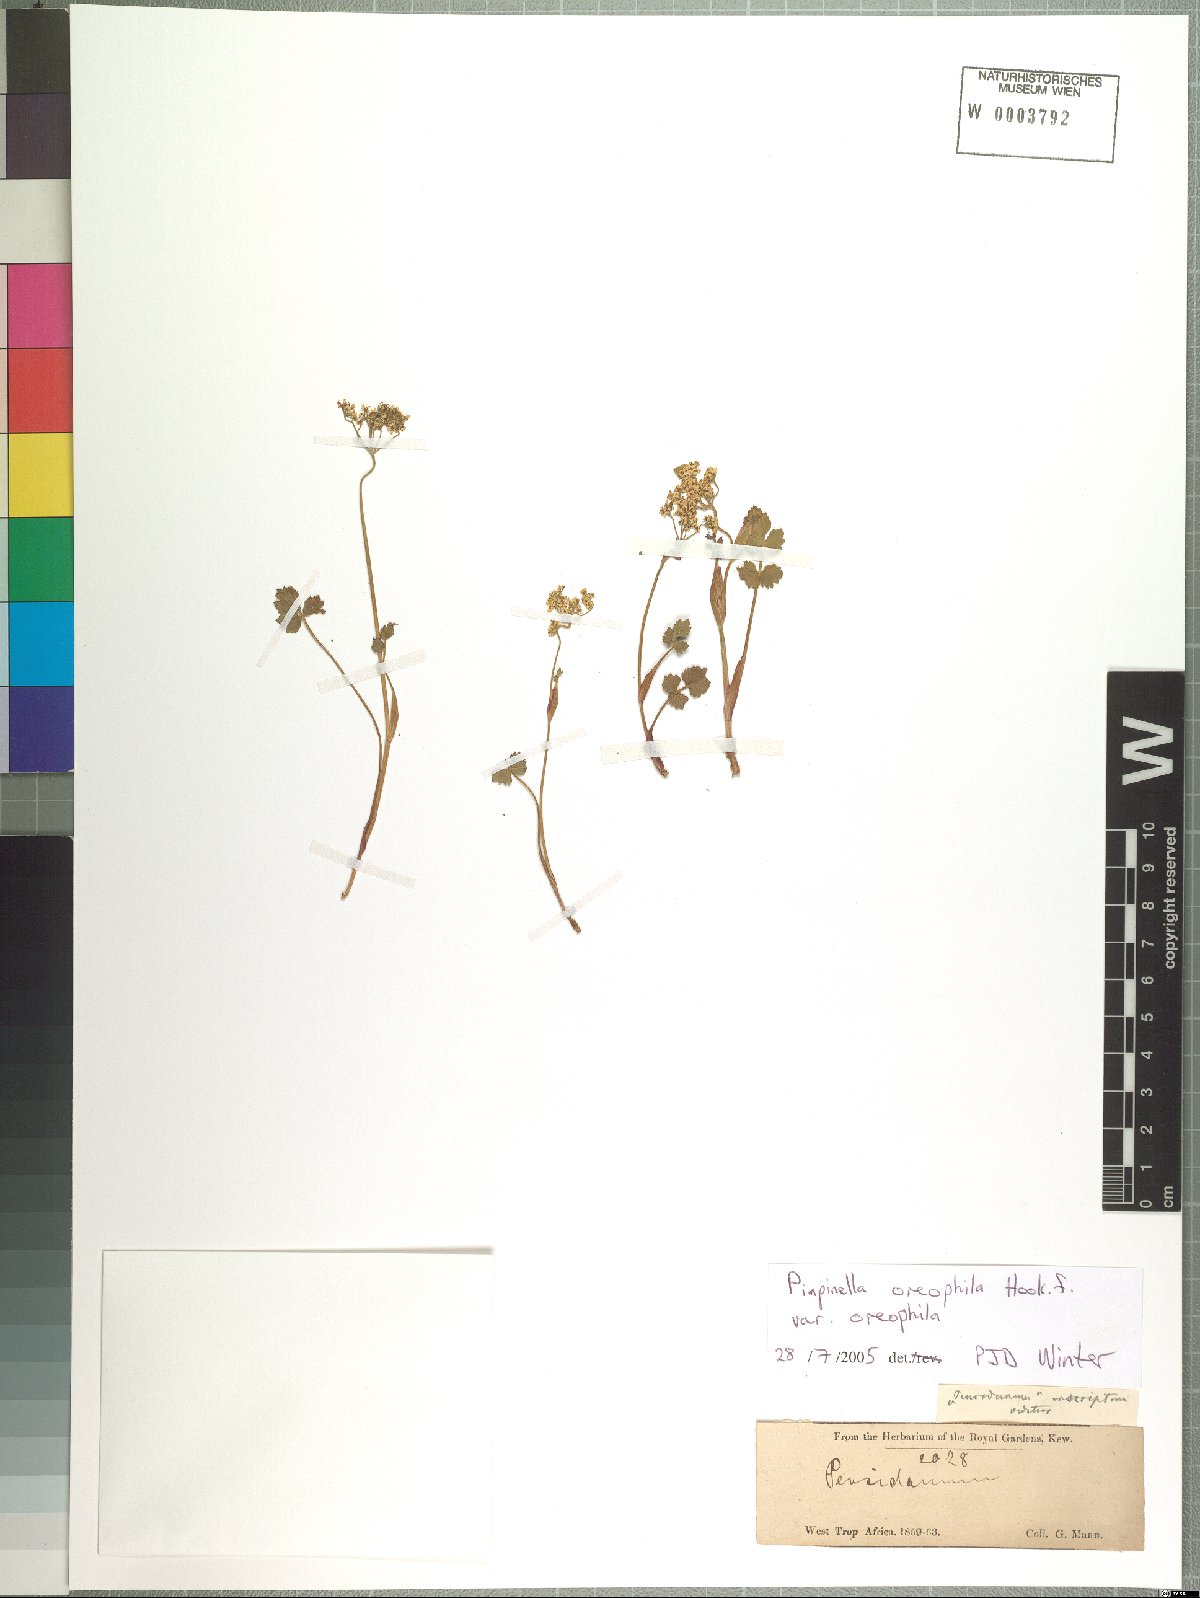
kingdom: Plantae
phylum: Tracheophyta
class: Magnoliopsida
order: Apiales
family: Apiaceae
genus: Pimpinella
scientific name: Pimpinella oreophila
